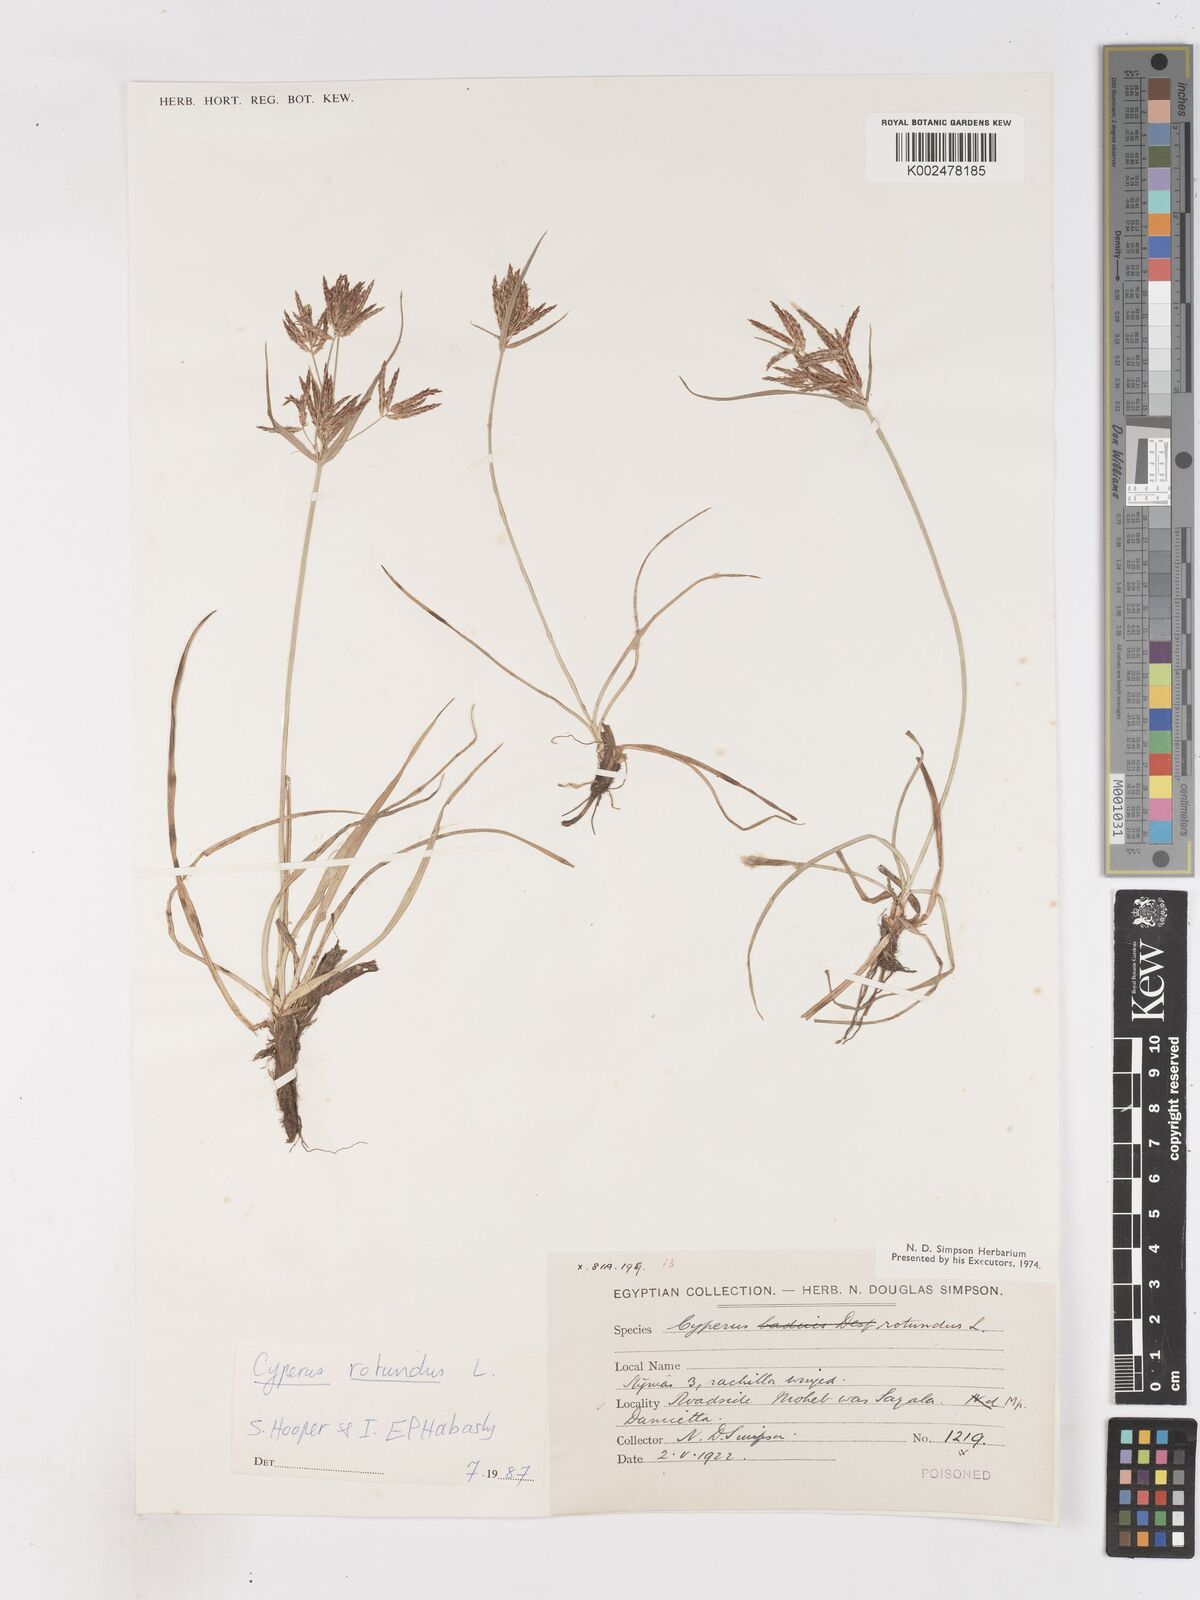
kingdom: Plantae
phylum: Tracheophyta
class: Liliopsida
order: Poales
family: Cyperaceae
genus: Cyperus
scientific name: Cyperus rotundus
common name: Nutgrass
